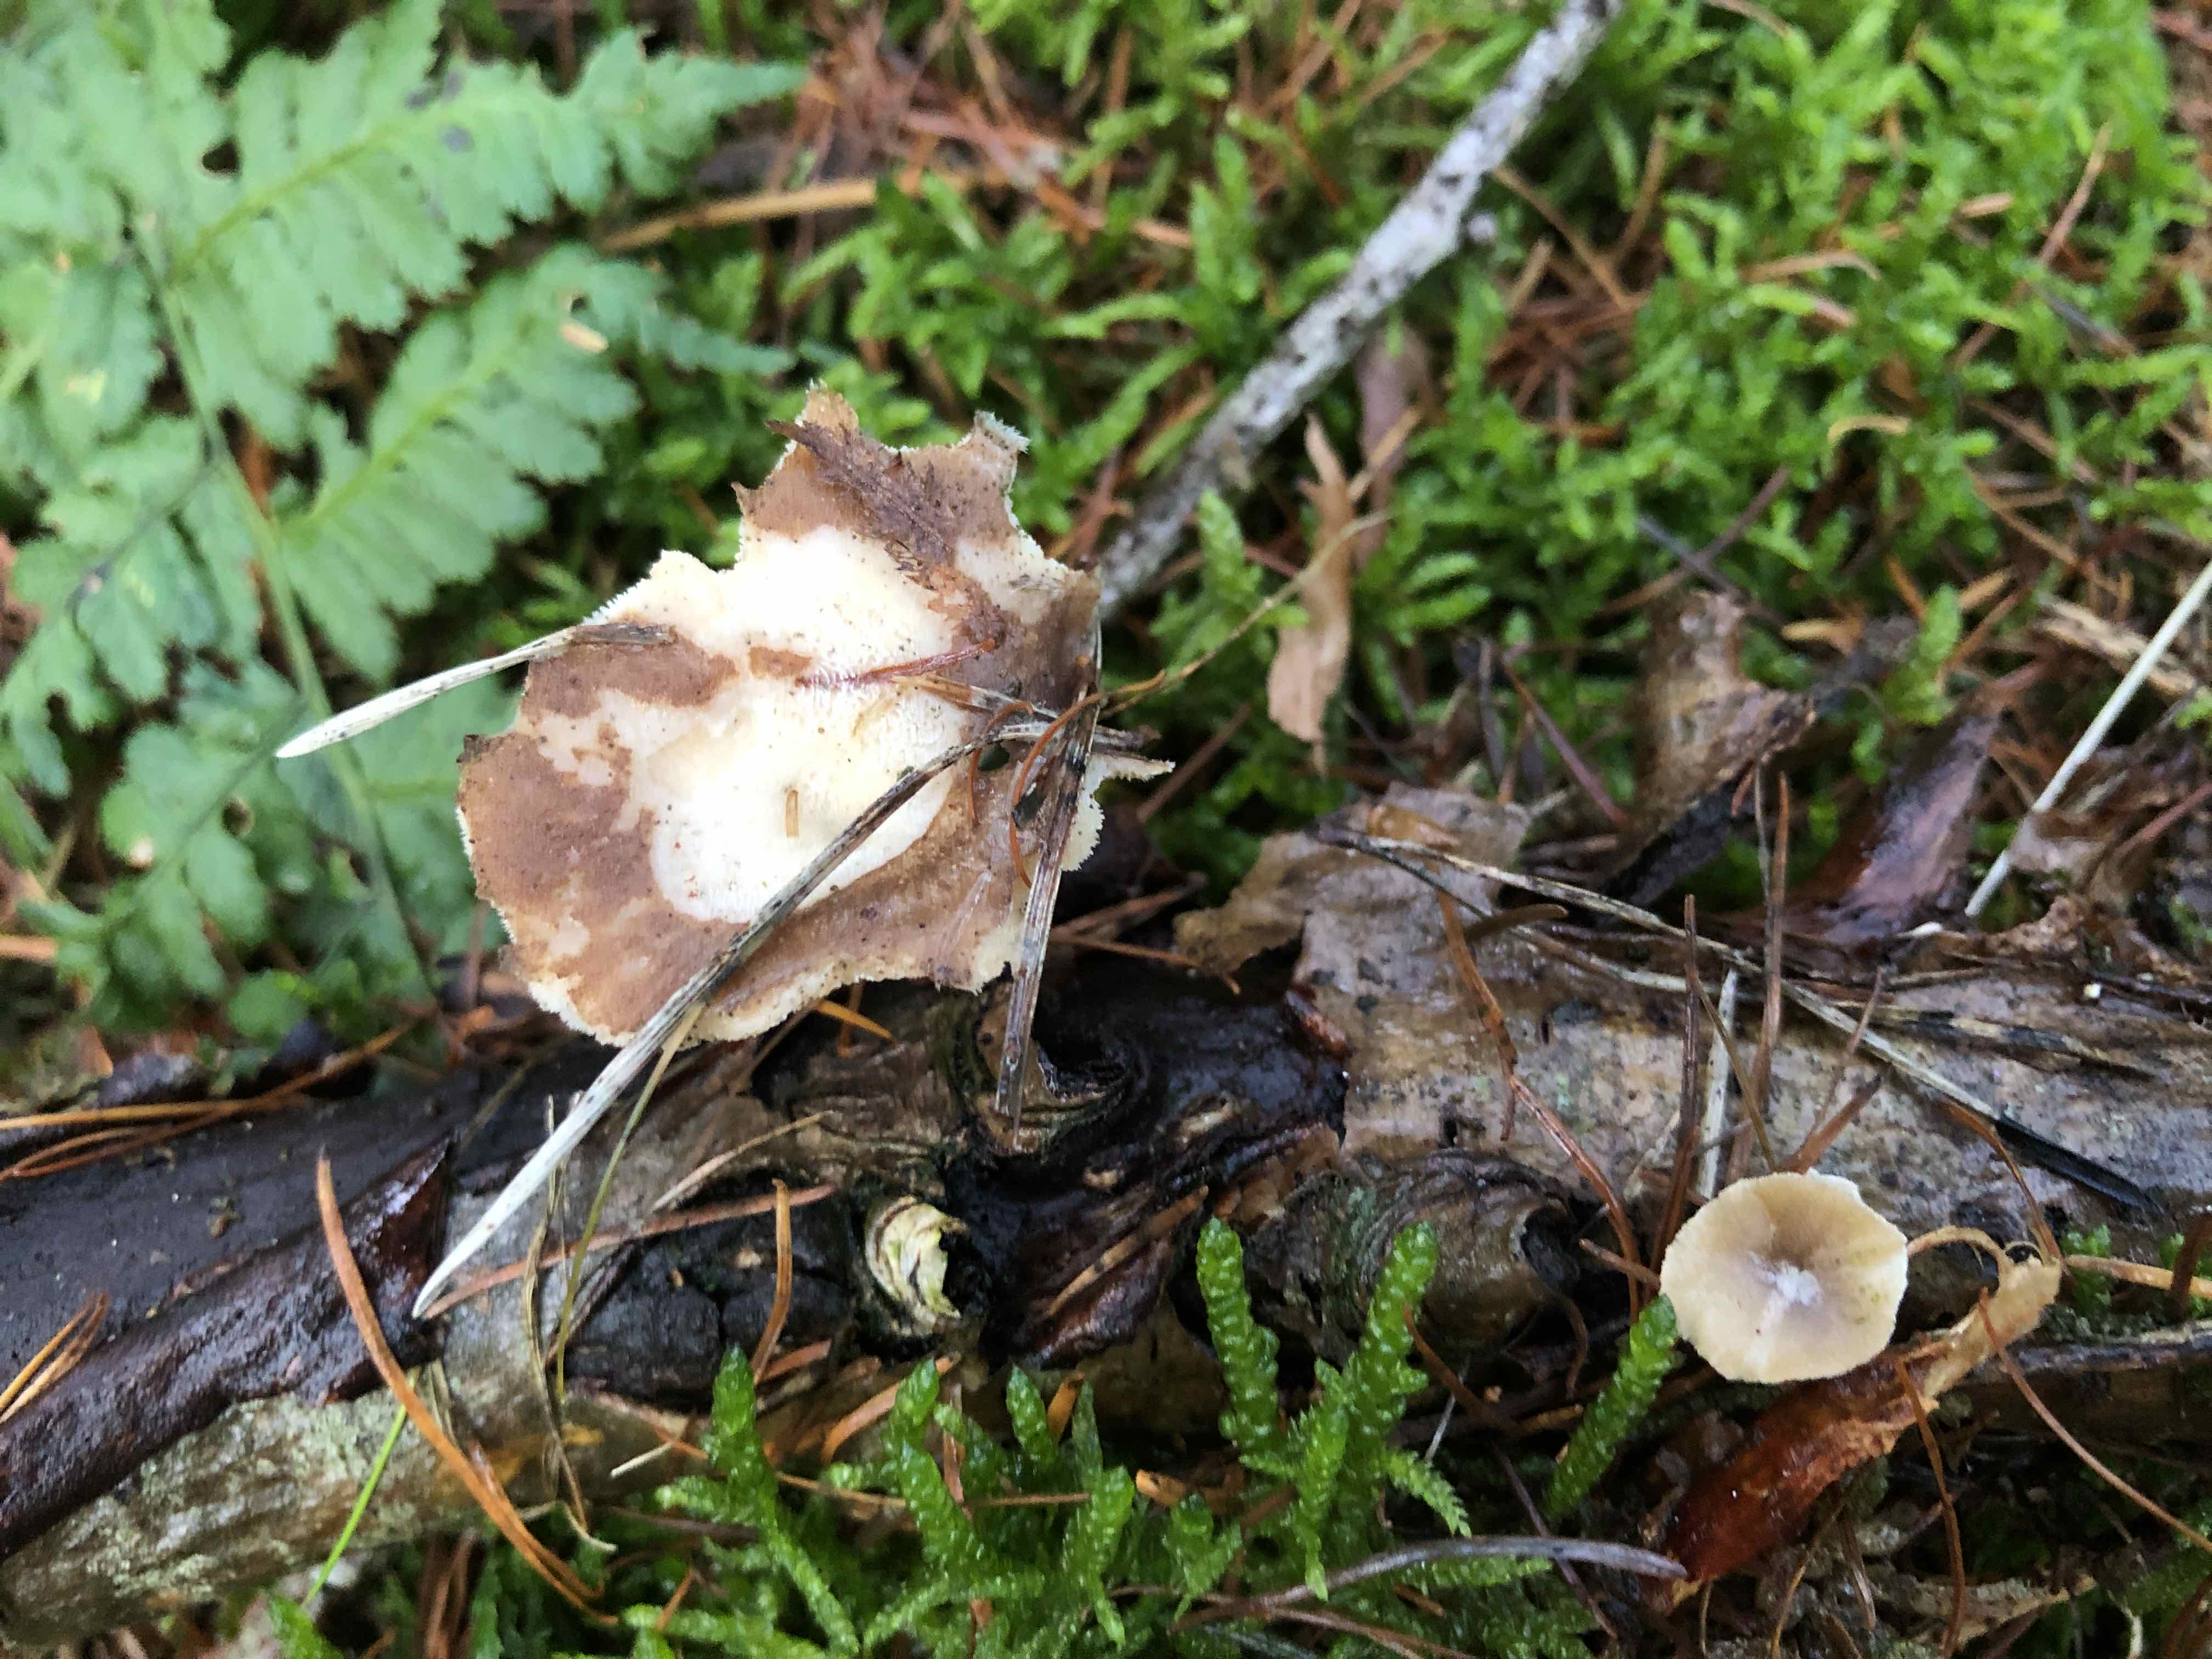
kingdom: Fungi
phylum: Basidiomycota
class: Agaricomycetes
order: Polyporales
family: Polyporaceae
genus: Lentinus
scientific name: Lentinus brumalis
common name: vinter-stilkporesvamp
